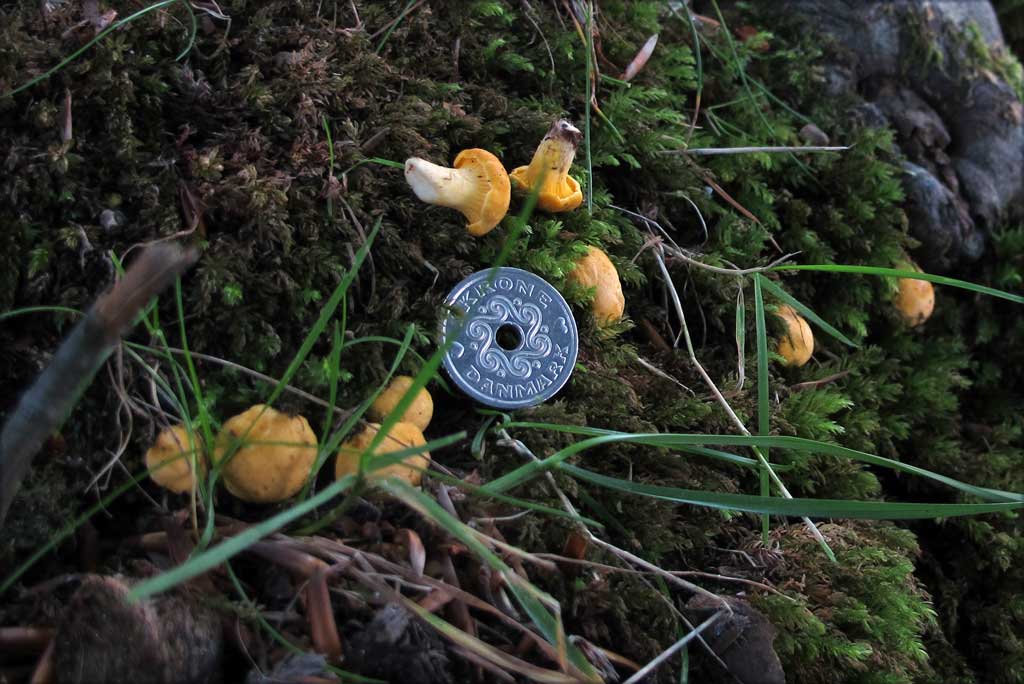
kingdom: Fungi
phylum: Basidiomycota
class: Agaricomycetes
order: Cantharellales
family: Hydnaceae
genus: Cantharellus
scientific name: Cantharellus
